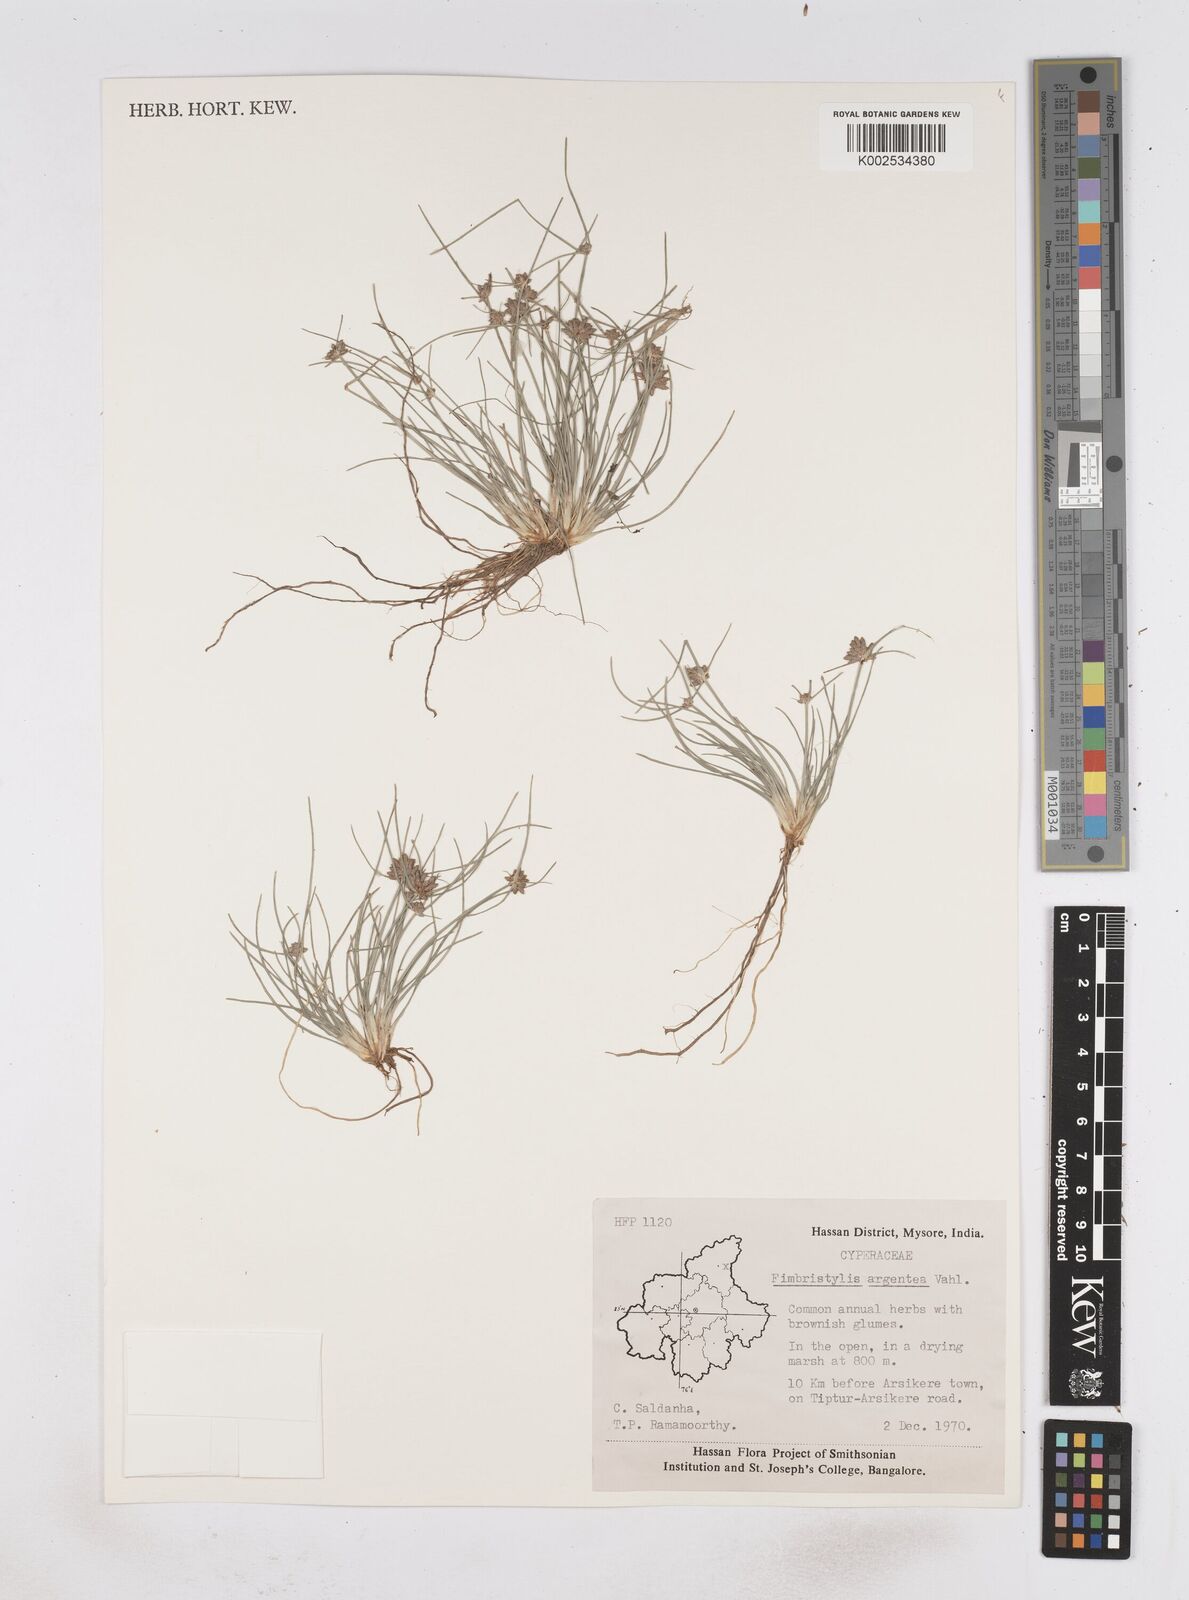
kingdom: Plantae
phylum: Tracheophyta
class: Liliopsida
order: Poales
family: Cyperaceae
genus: Fimbristylis
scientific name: Fimbristylis argentea
